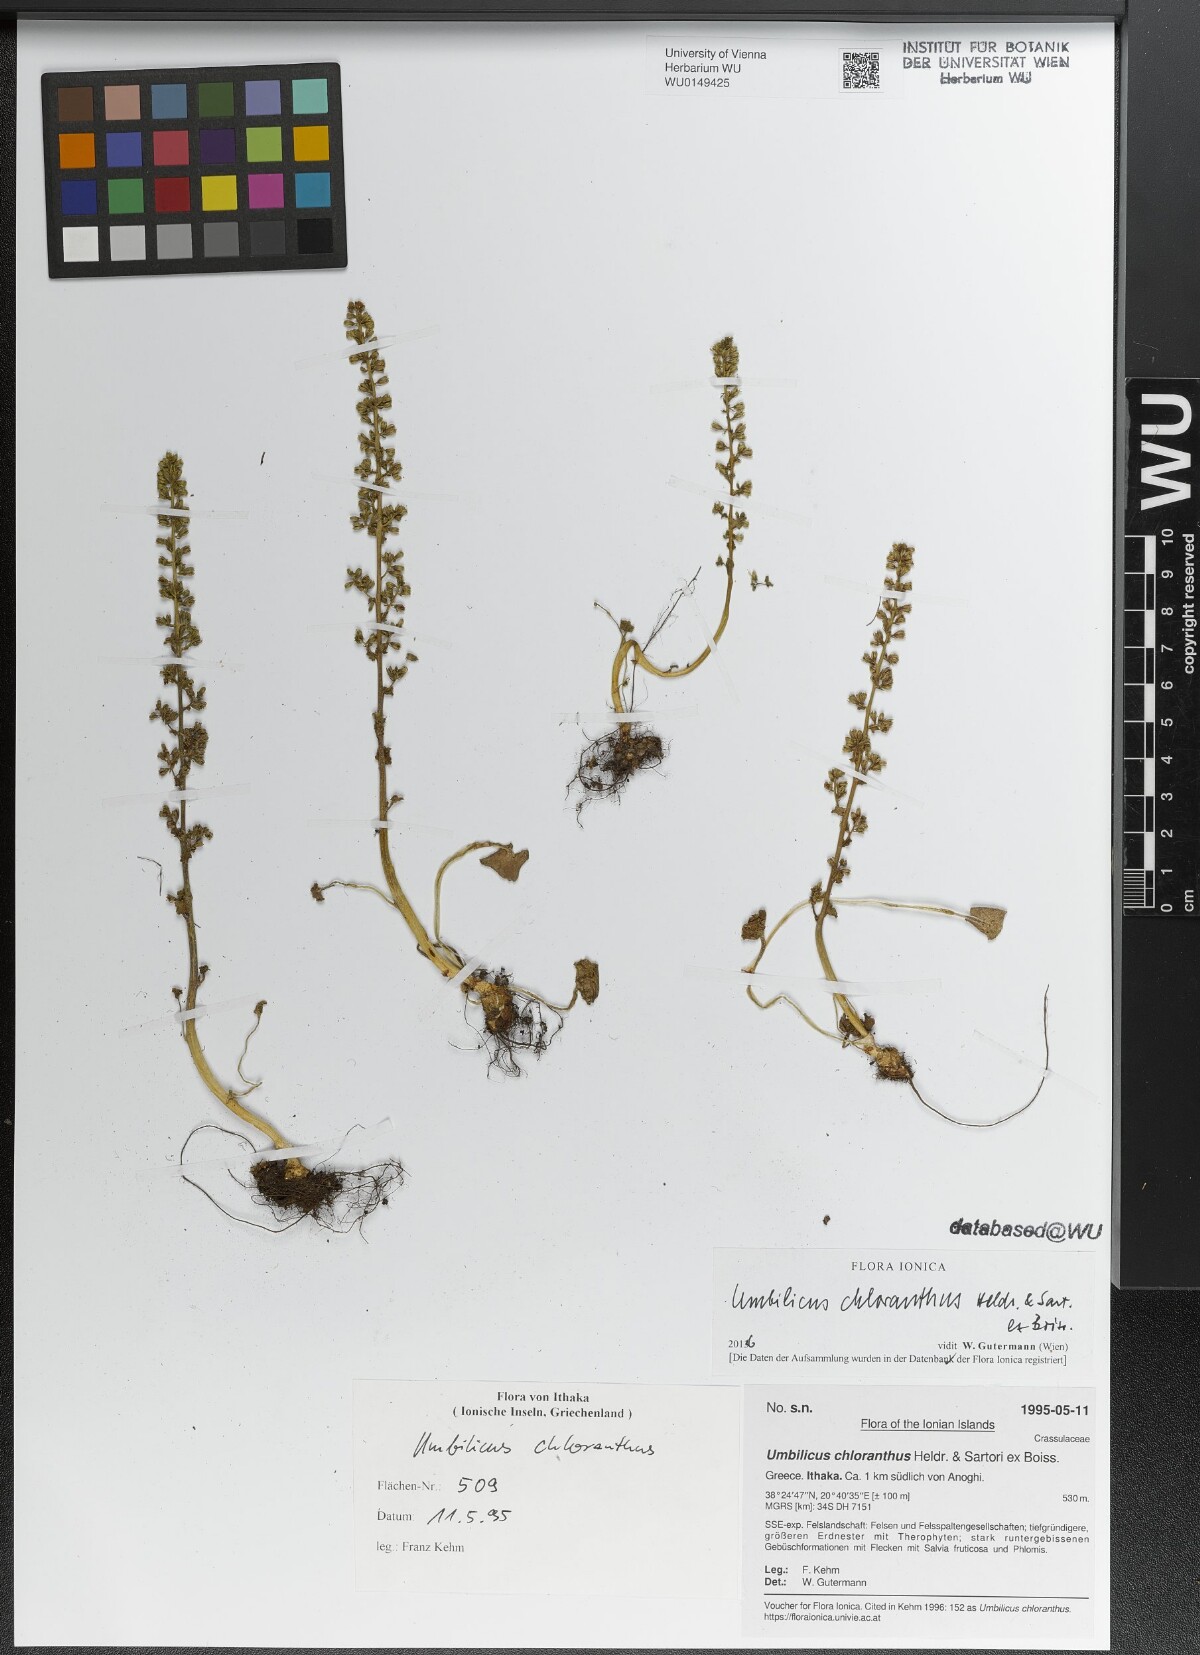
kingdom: Plantae
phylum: Tracheophyta
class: Magnoliopsida
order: Saxifragales
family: Crassulaceae
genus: Umbilicus
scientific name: Umbilicus chloranthus
